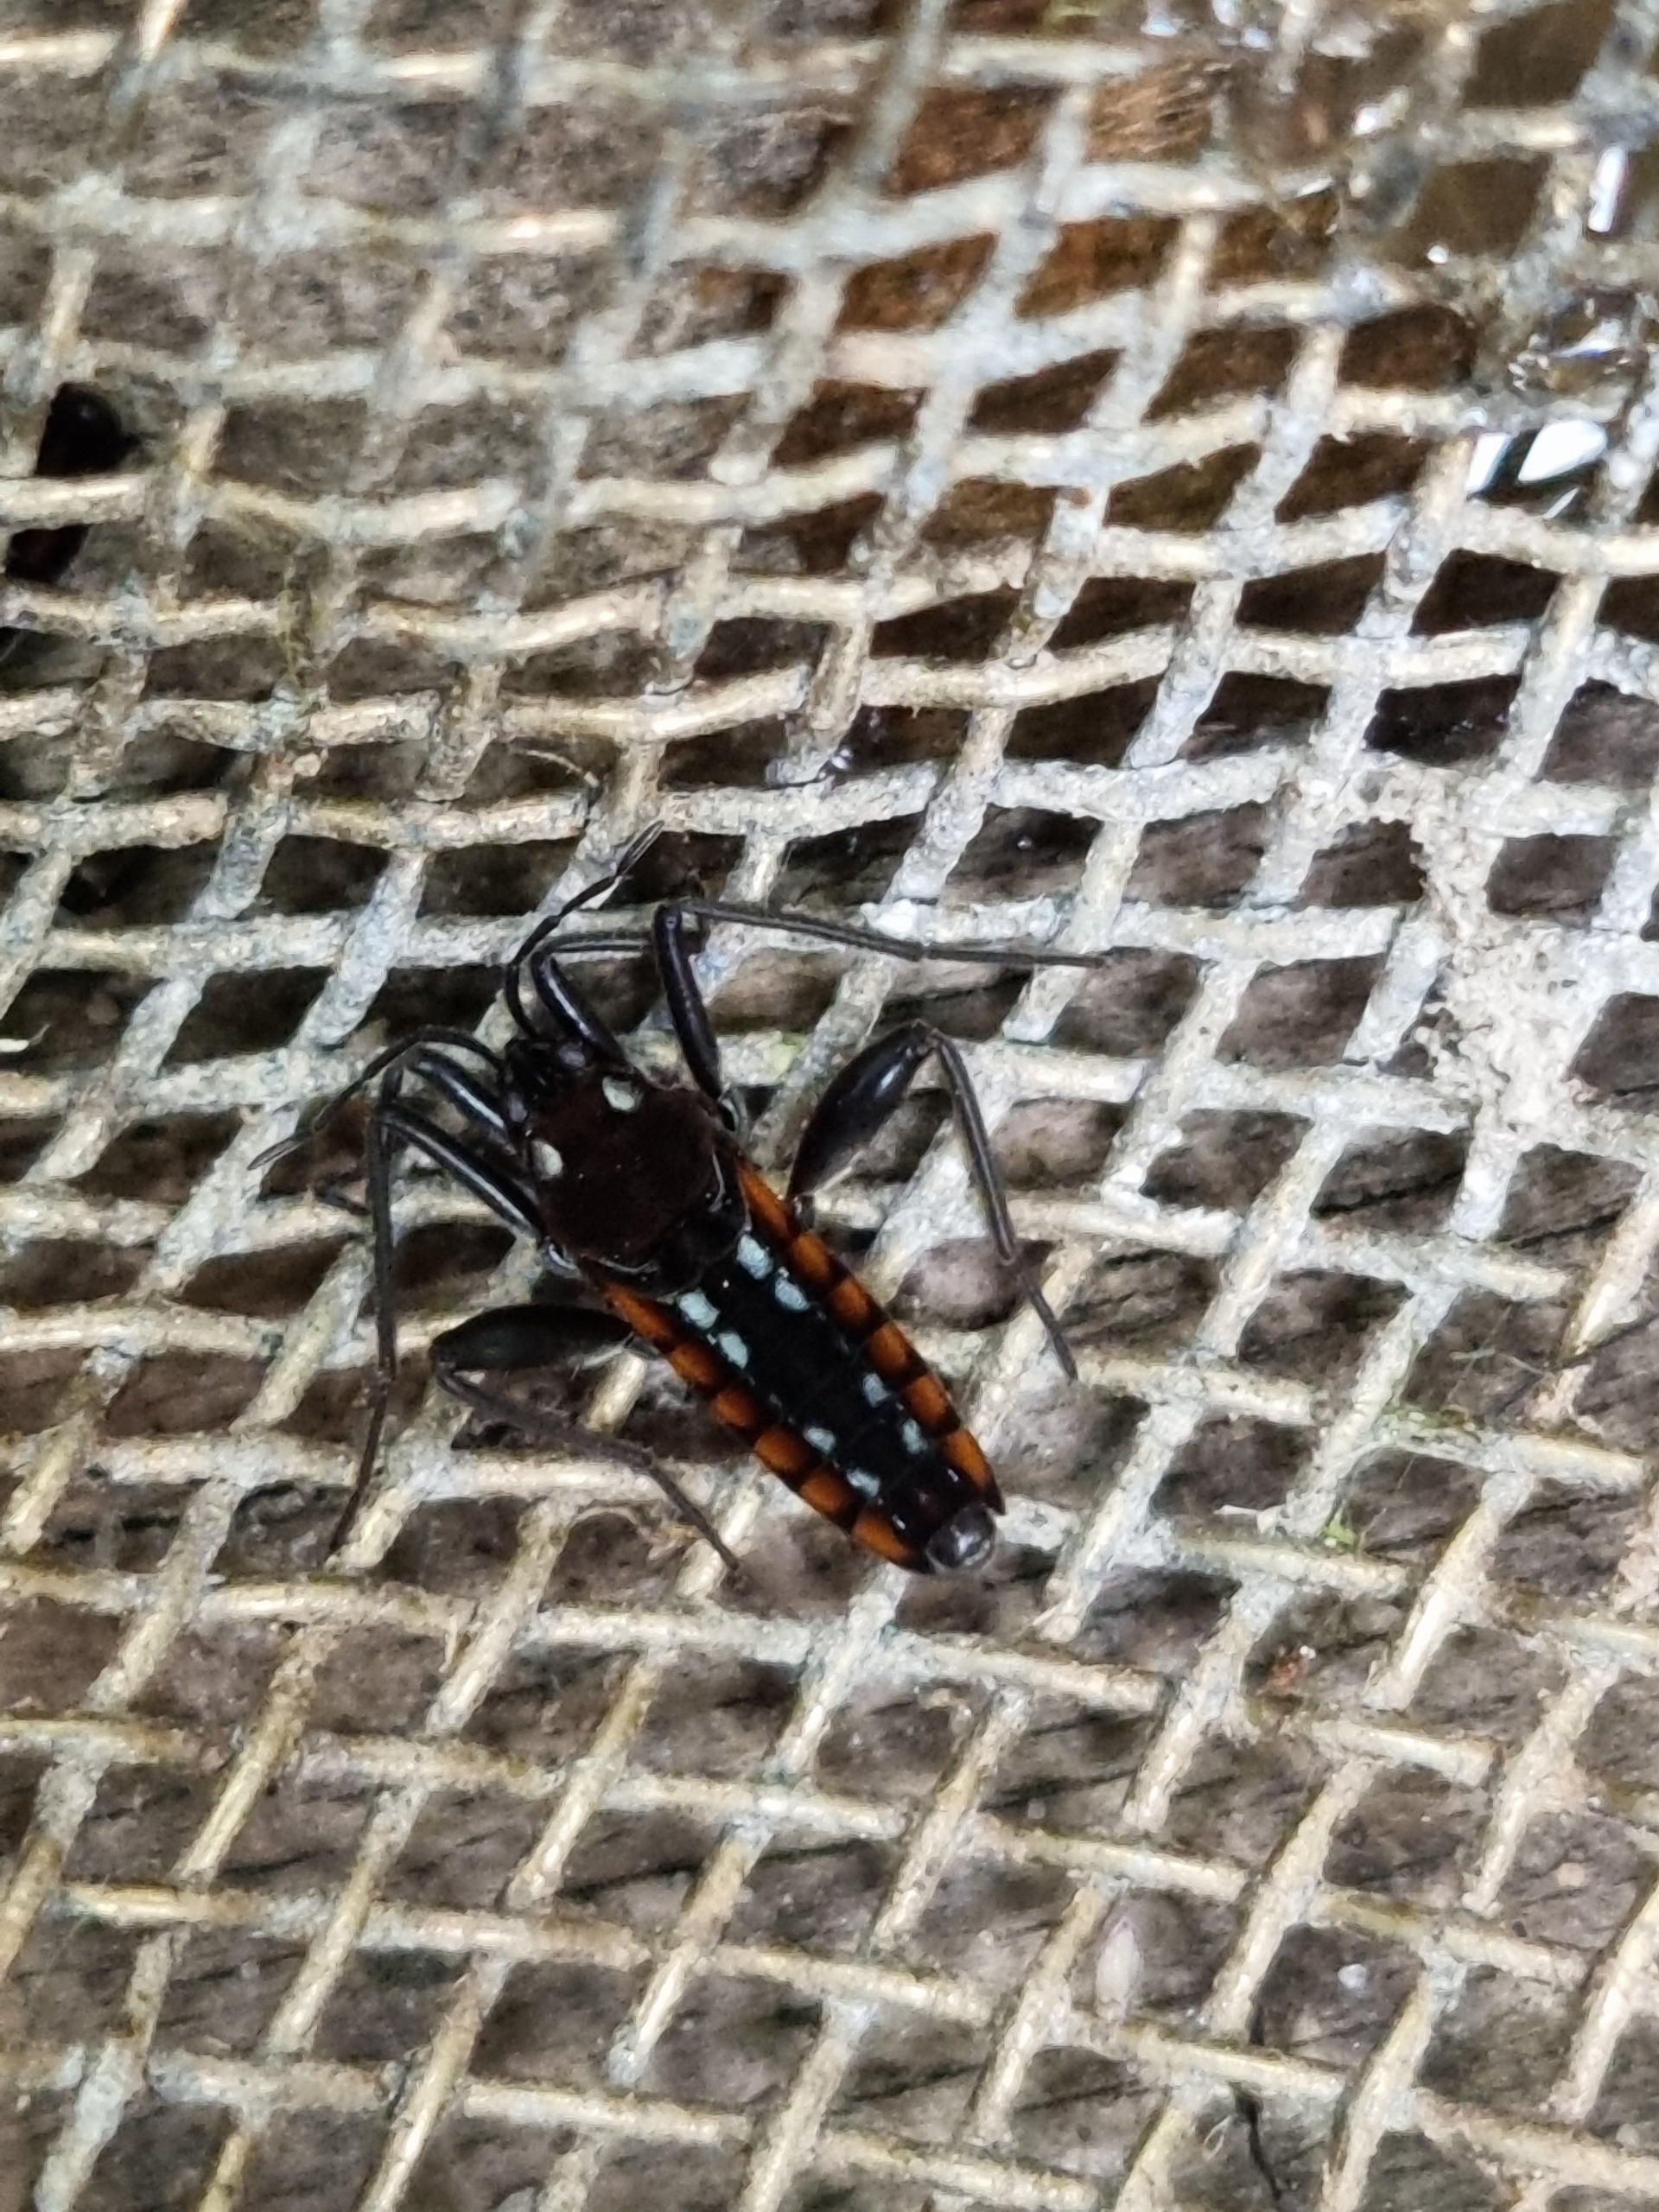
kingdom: Animalia
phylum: Arthropoda
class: Insecta
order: Hemiptera
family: Veliidae
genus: Velia
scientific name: Velia caprai
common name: Almindelig bækløber
